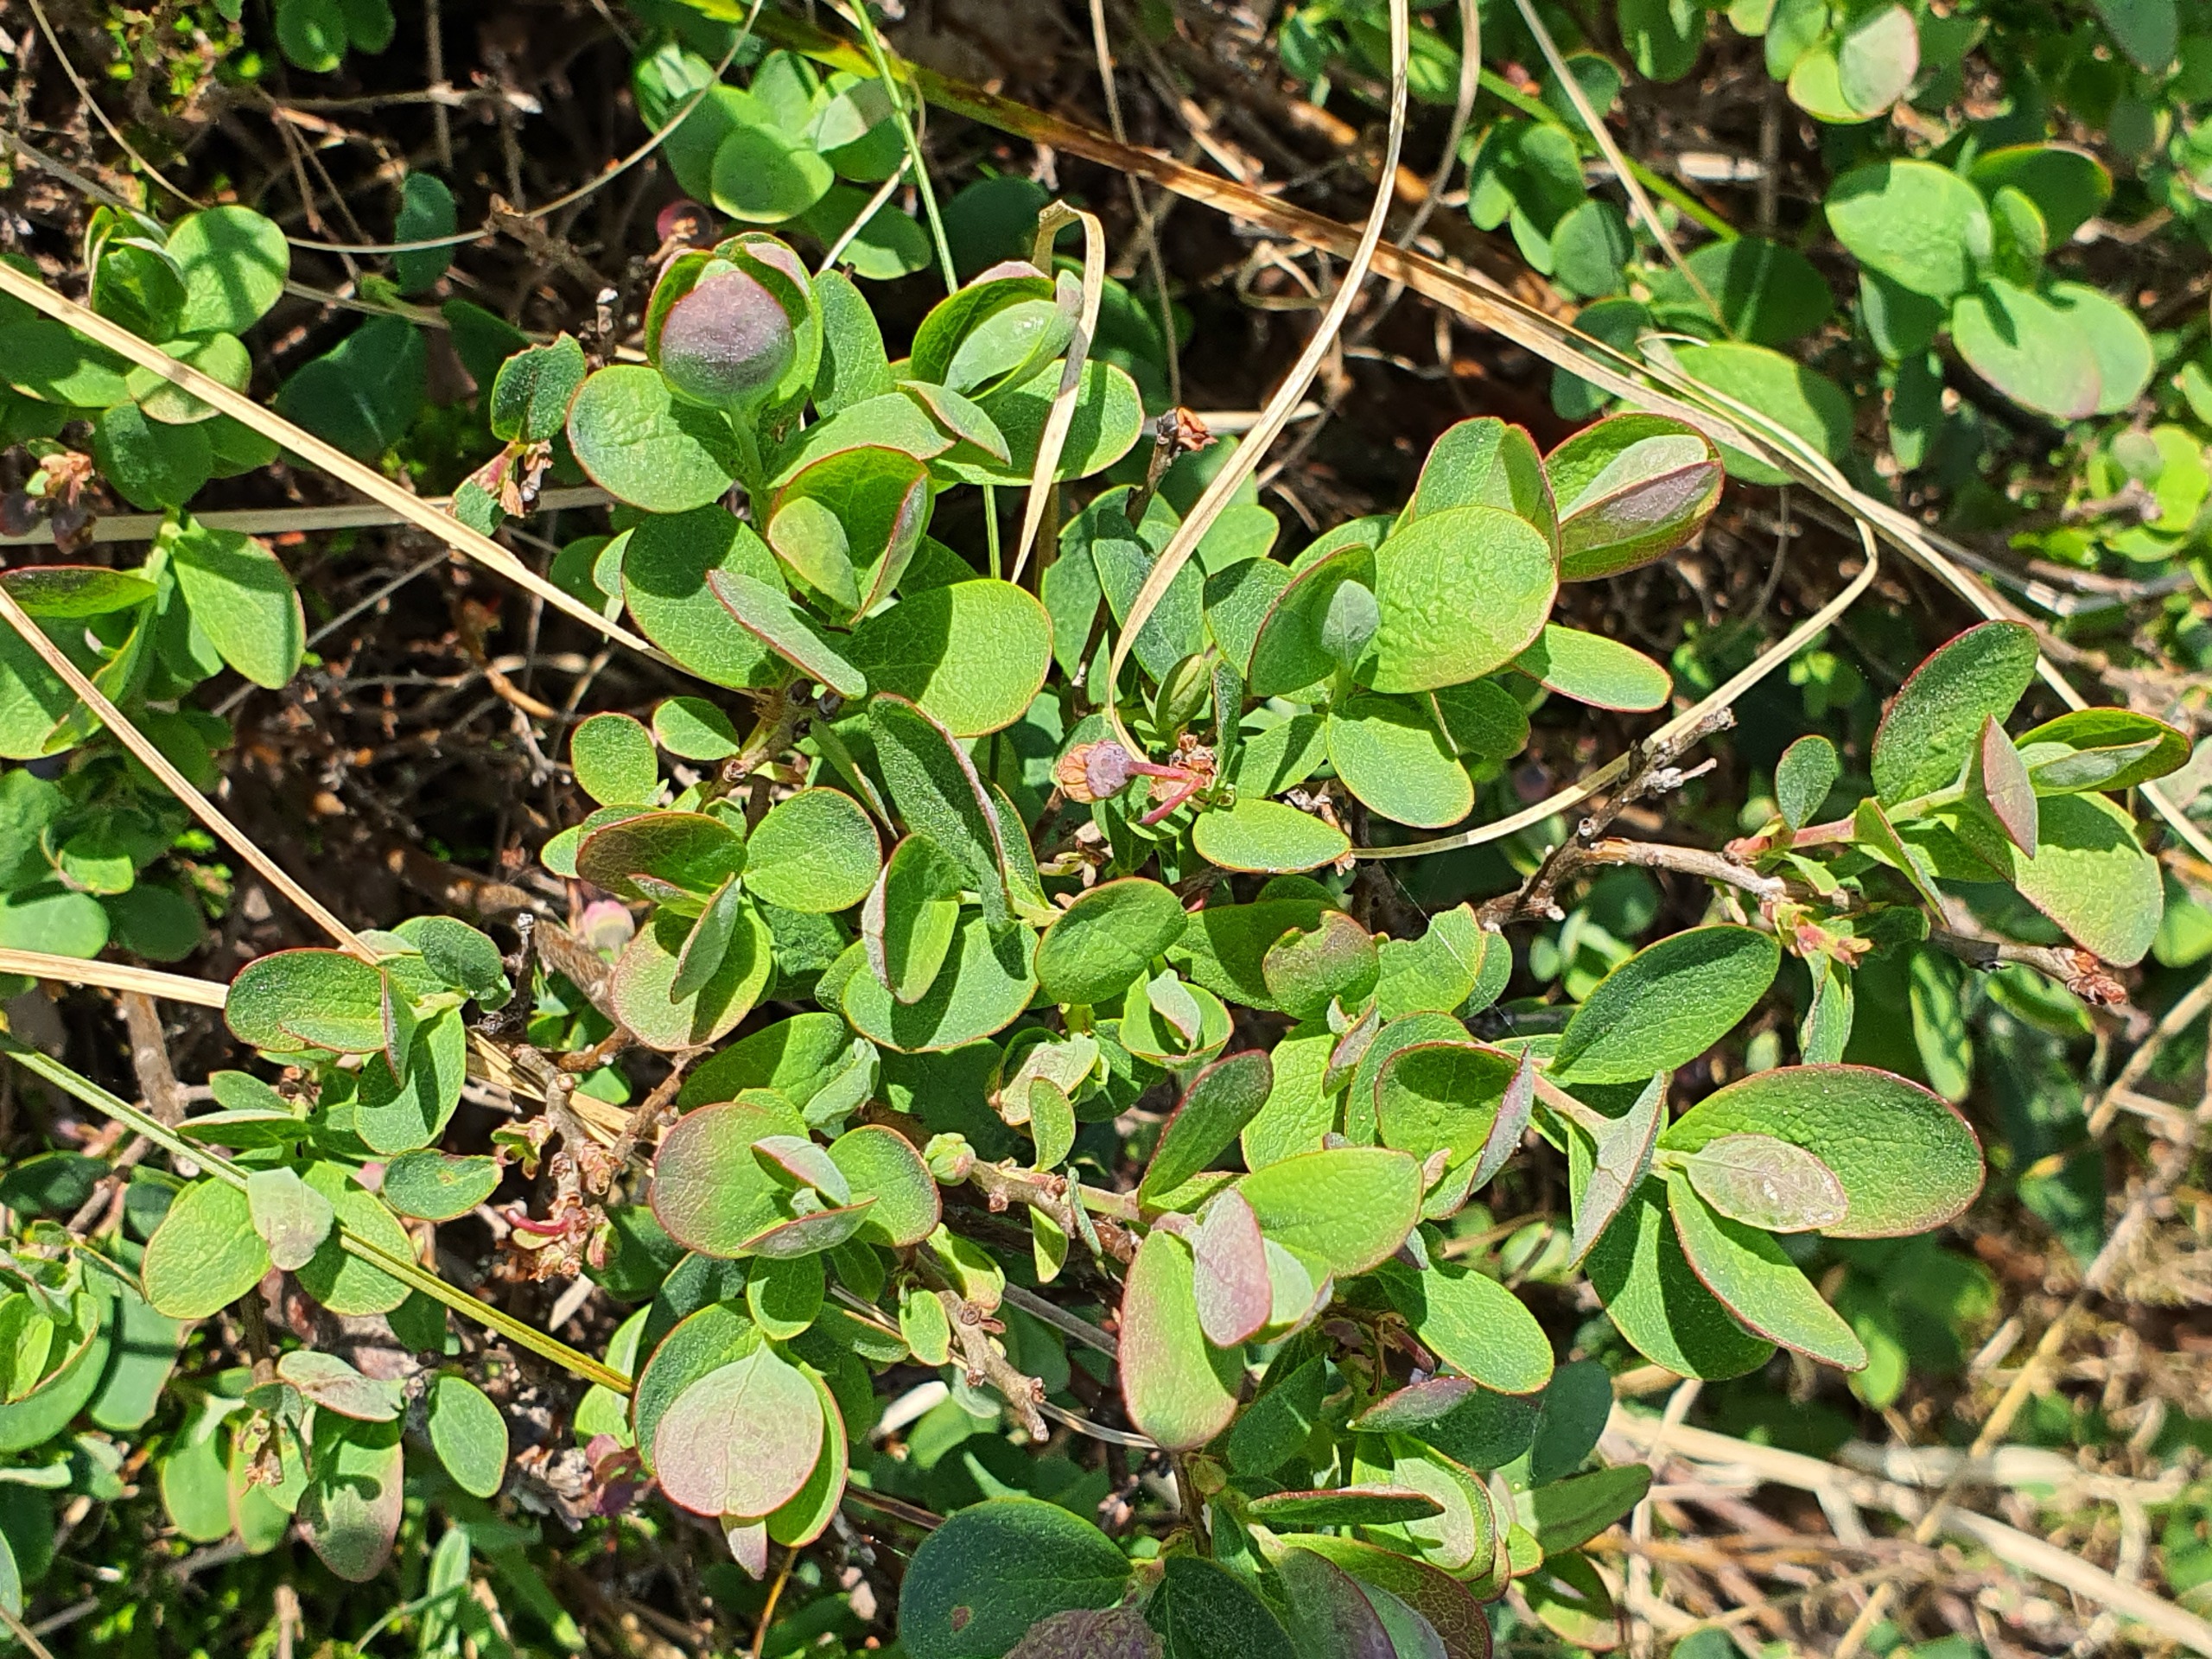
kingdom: Plantae
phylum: Tracheophyta
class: Magnoliopsida
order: Ericales
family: Ericaceae
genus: Vaccinium
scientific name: Vaccinium uliginosum
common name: Mose-bølle
